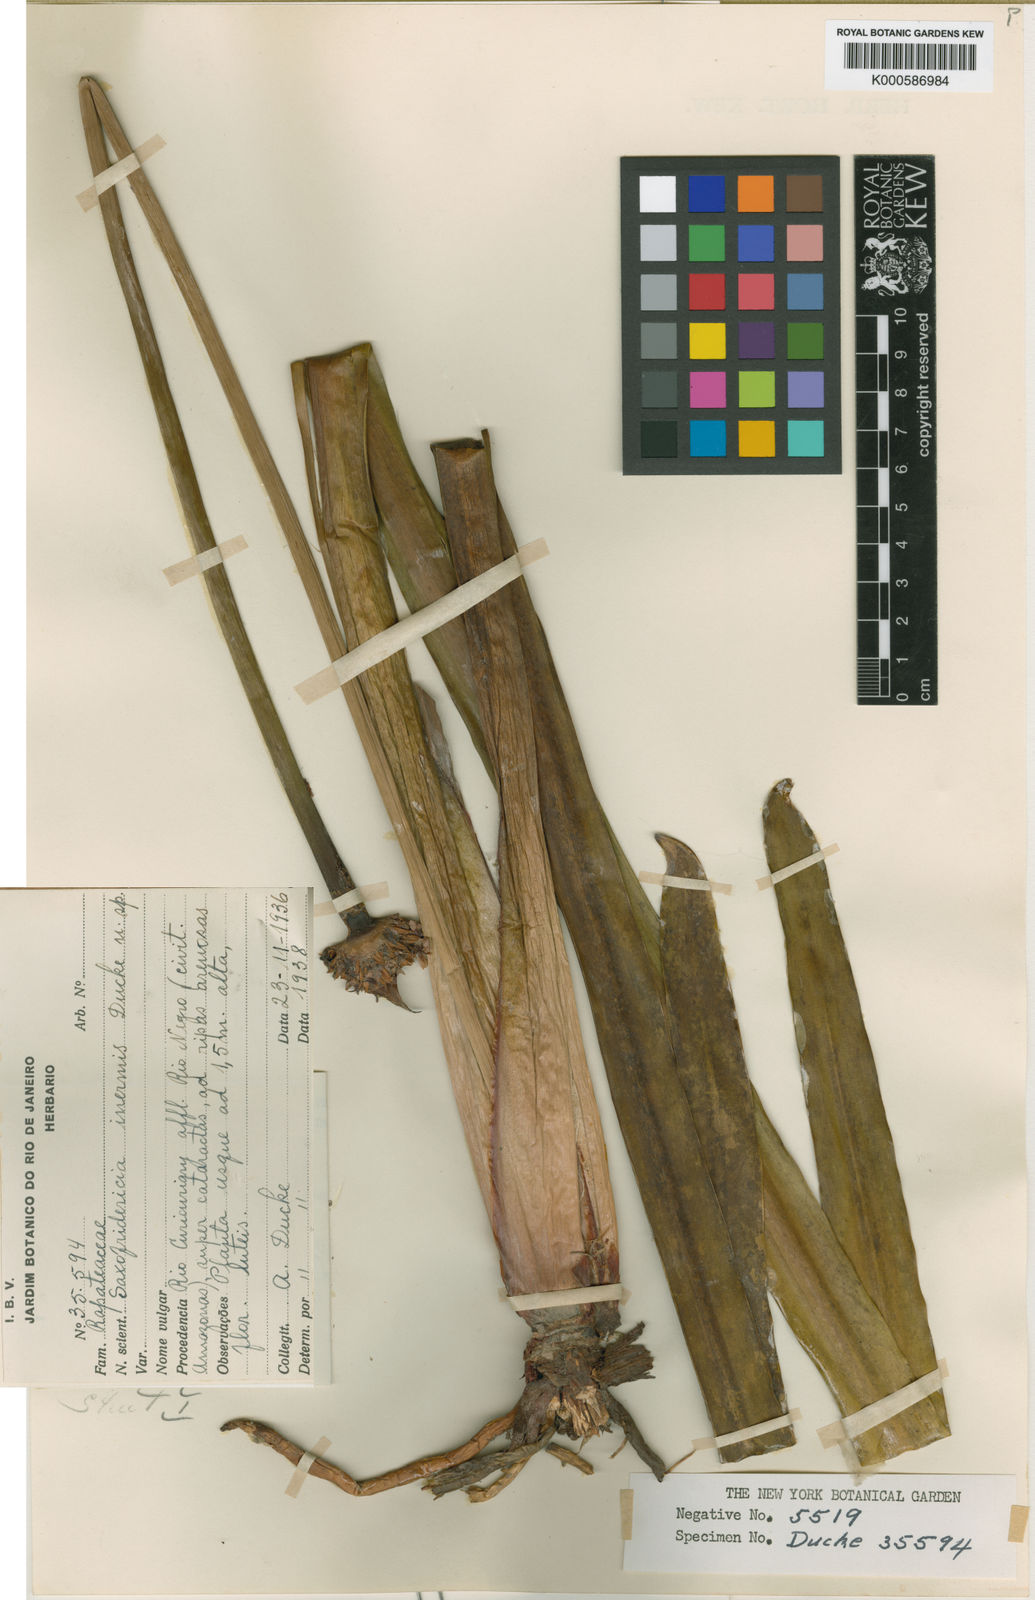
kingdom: Plantae
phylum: Tracheophyta
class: Liliopsida
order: Poales
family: Rapateaceae
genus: Saxofridericia
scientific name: Saxofridericia inermis
